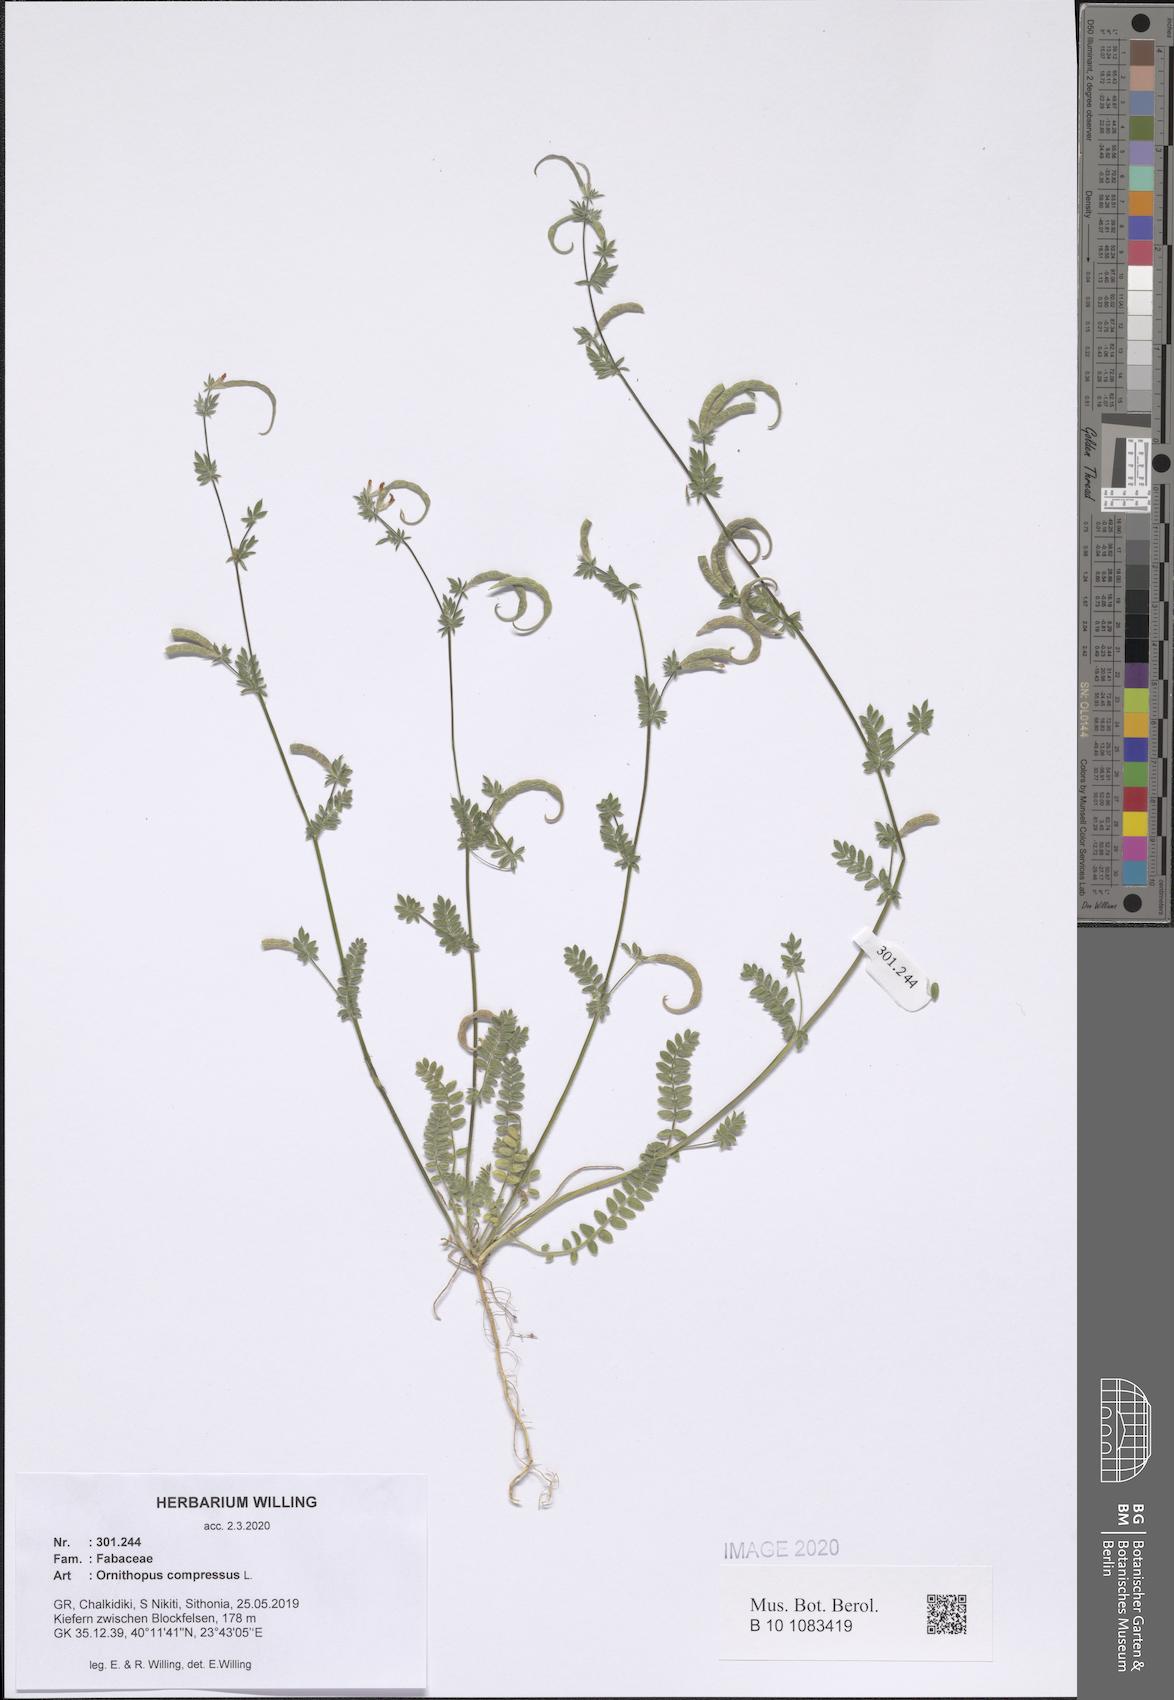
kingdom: Plantae
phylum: Tracheophyta
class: Magnoliopsida
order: Fabales
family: Fabaceae
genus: Ornithopus
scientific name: Ornithopus compressus
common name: Yellow serradella
